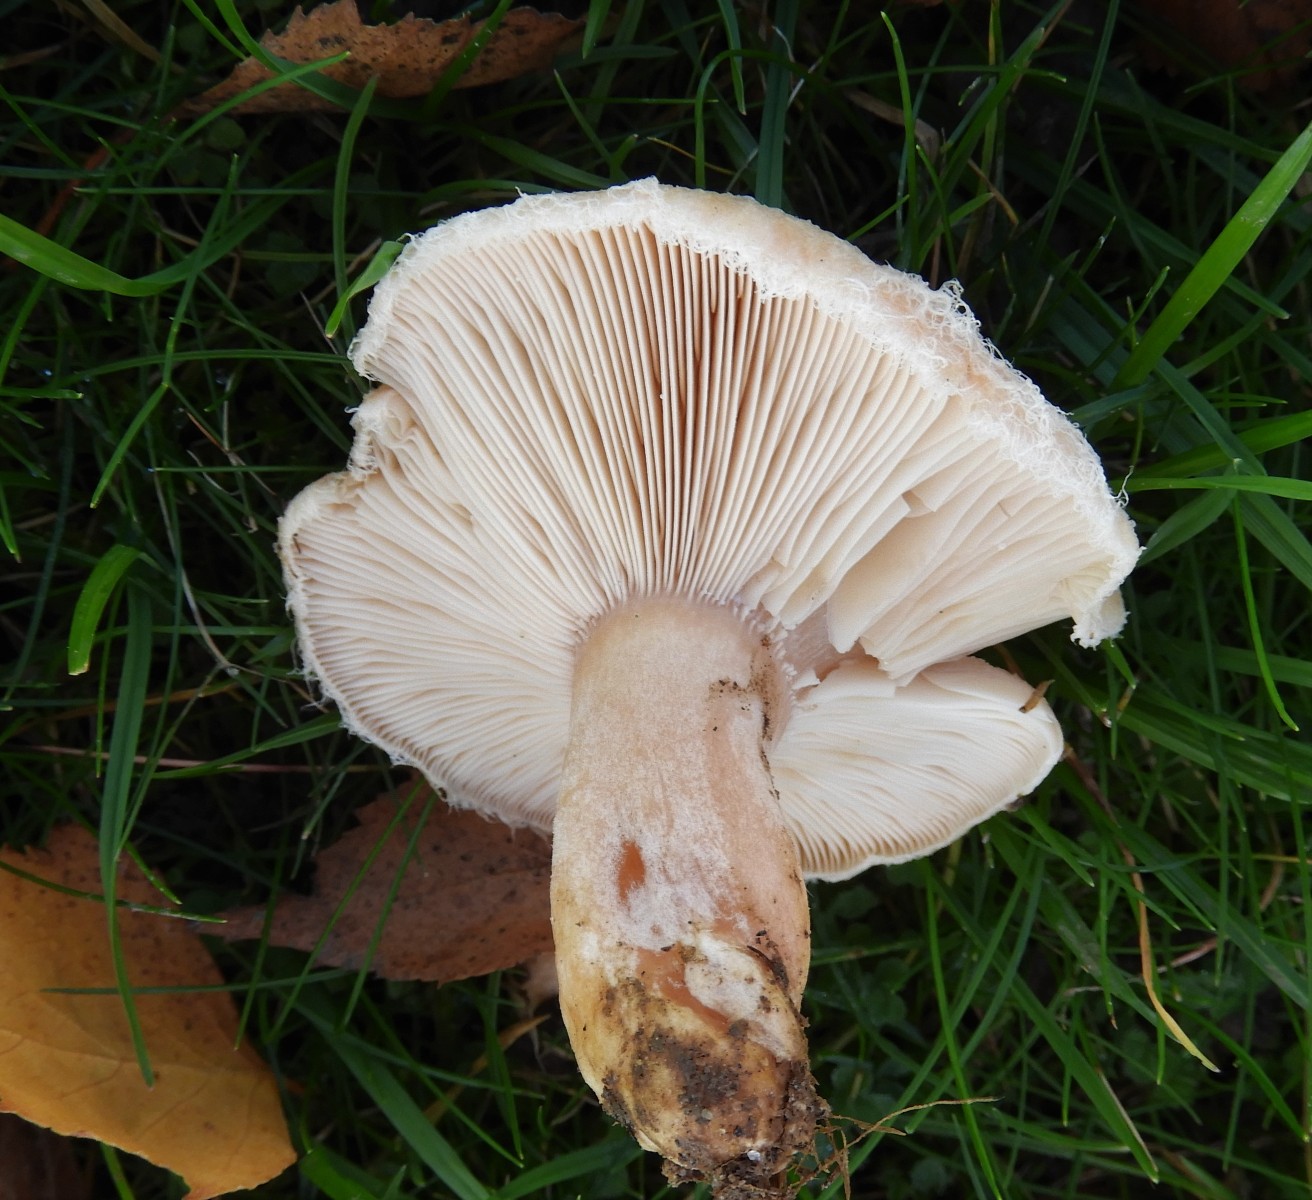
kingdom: Fungi
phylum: Basidiomycota
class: Agaricomycetes
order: Russulales
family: Russulaceae
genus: Lactarius
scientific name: Lactarius pubescens
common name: dunet mælkehat
